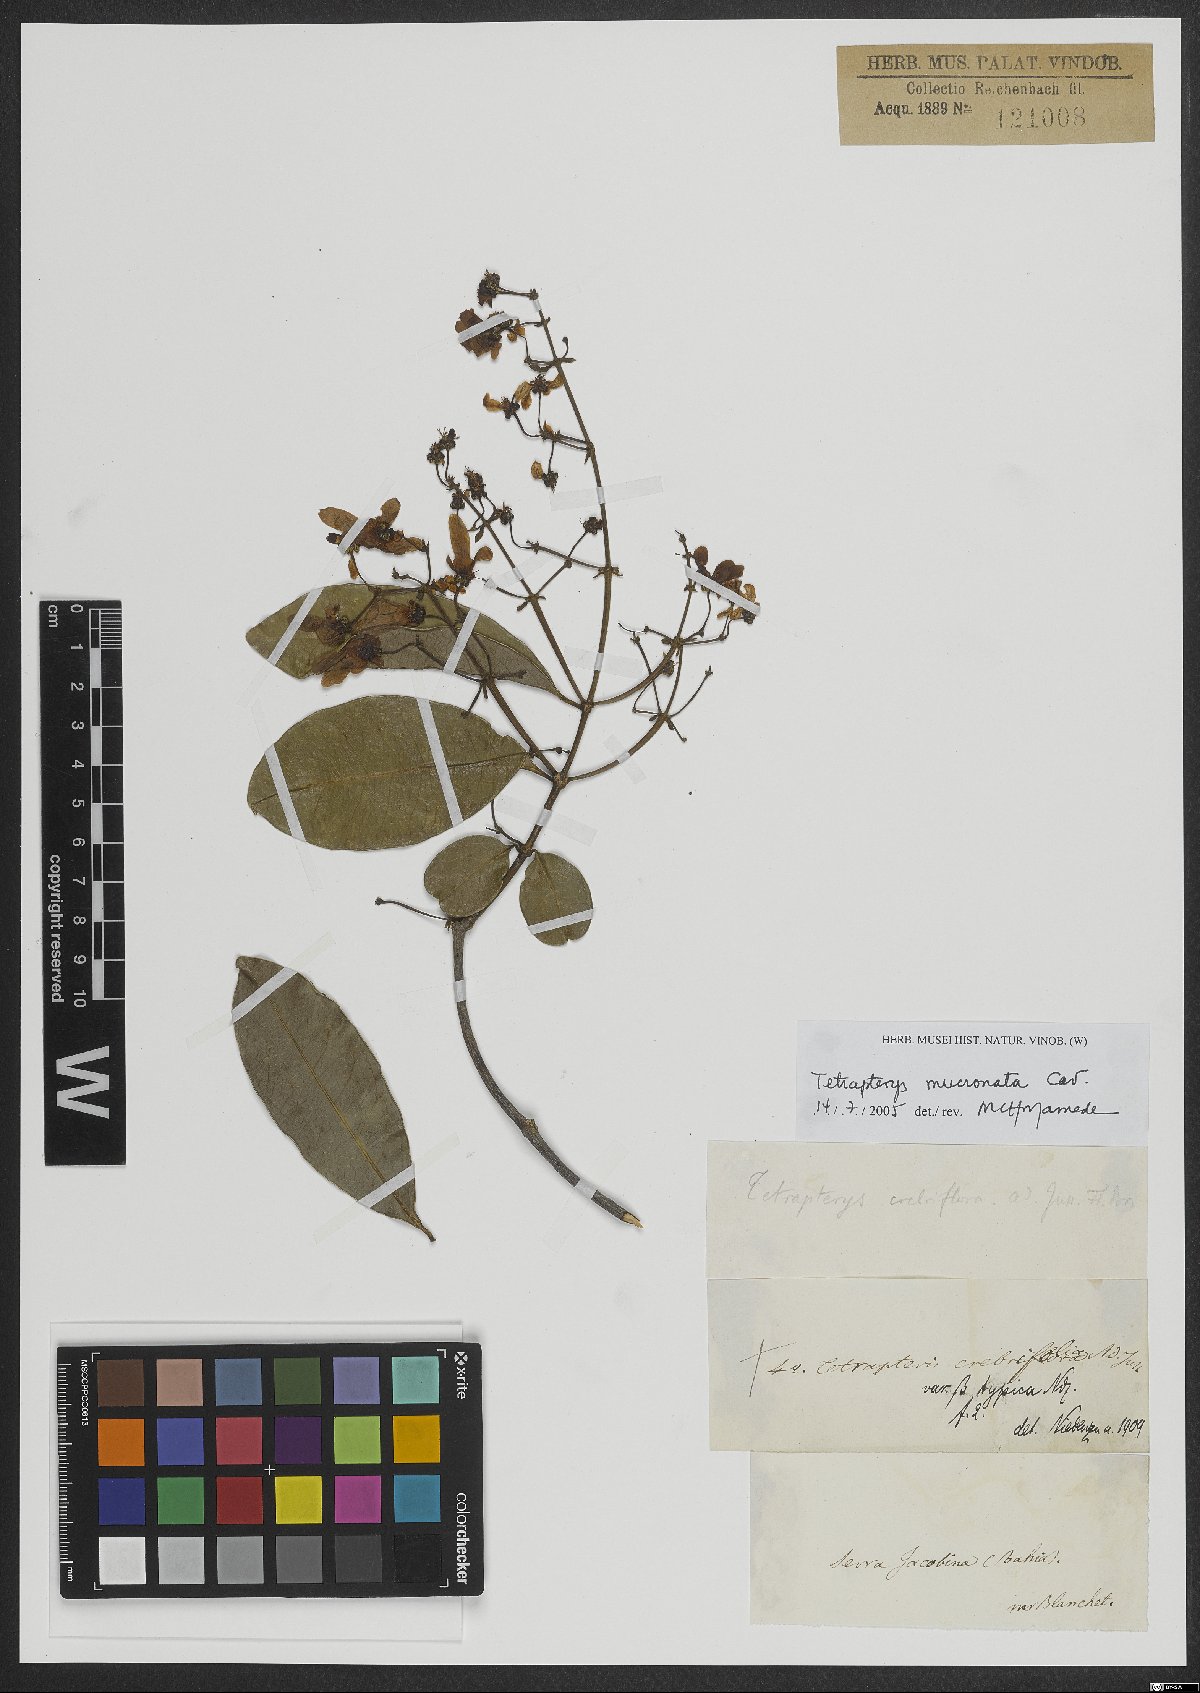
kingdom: Plantae
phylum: Tracheophyta
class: Magnoliopsida
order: Malpighiales
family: Malpighiaceae
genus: Tetrapterys
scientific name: Tetrapterys mucronata
